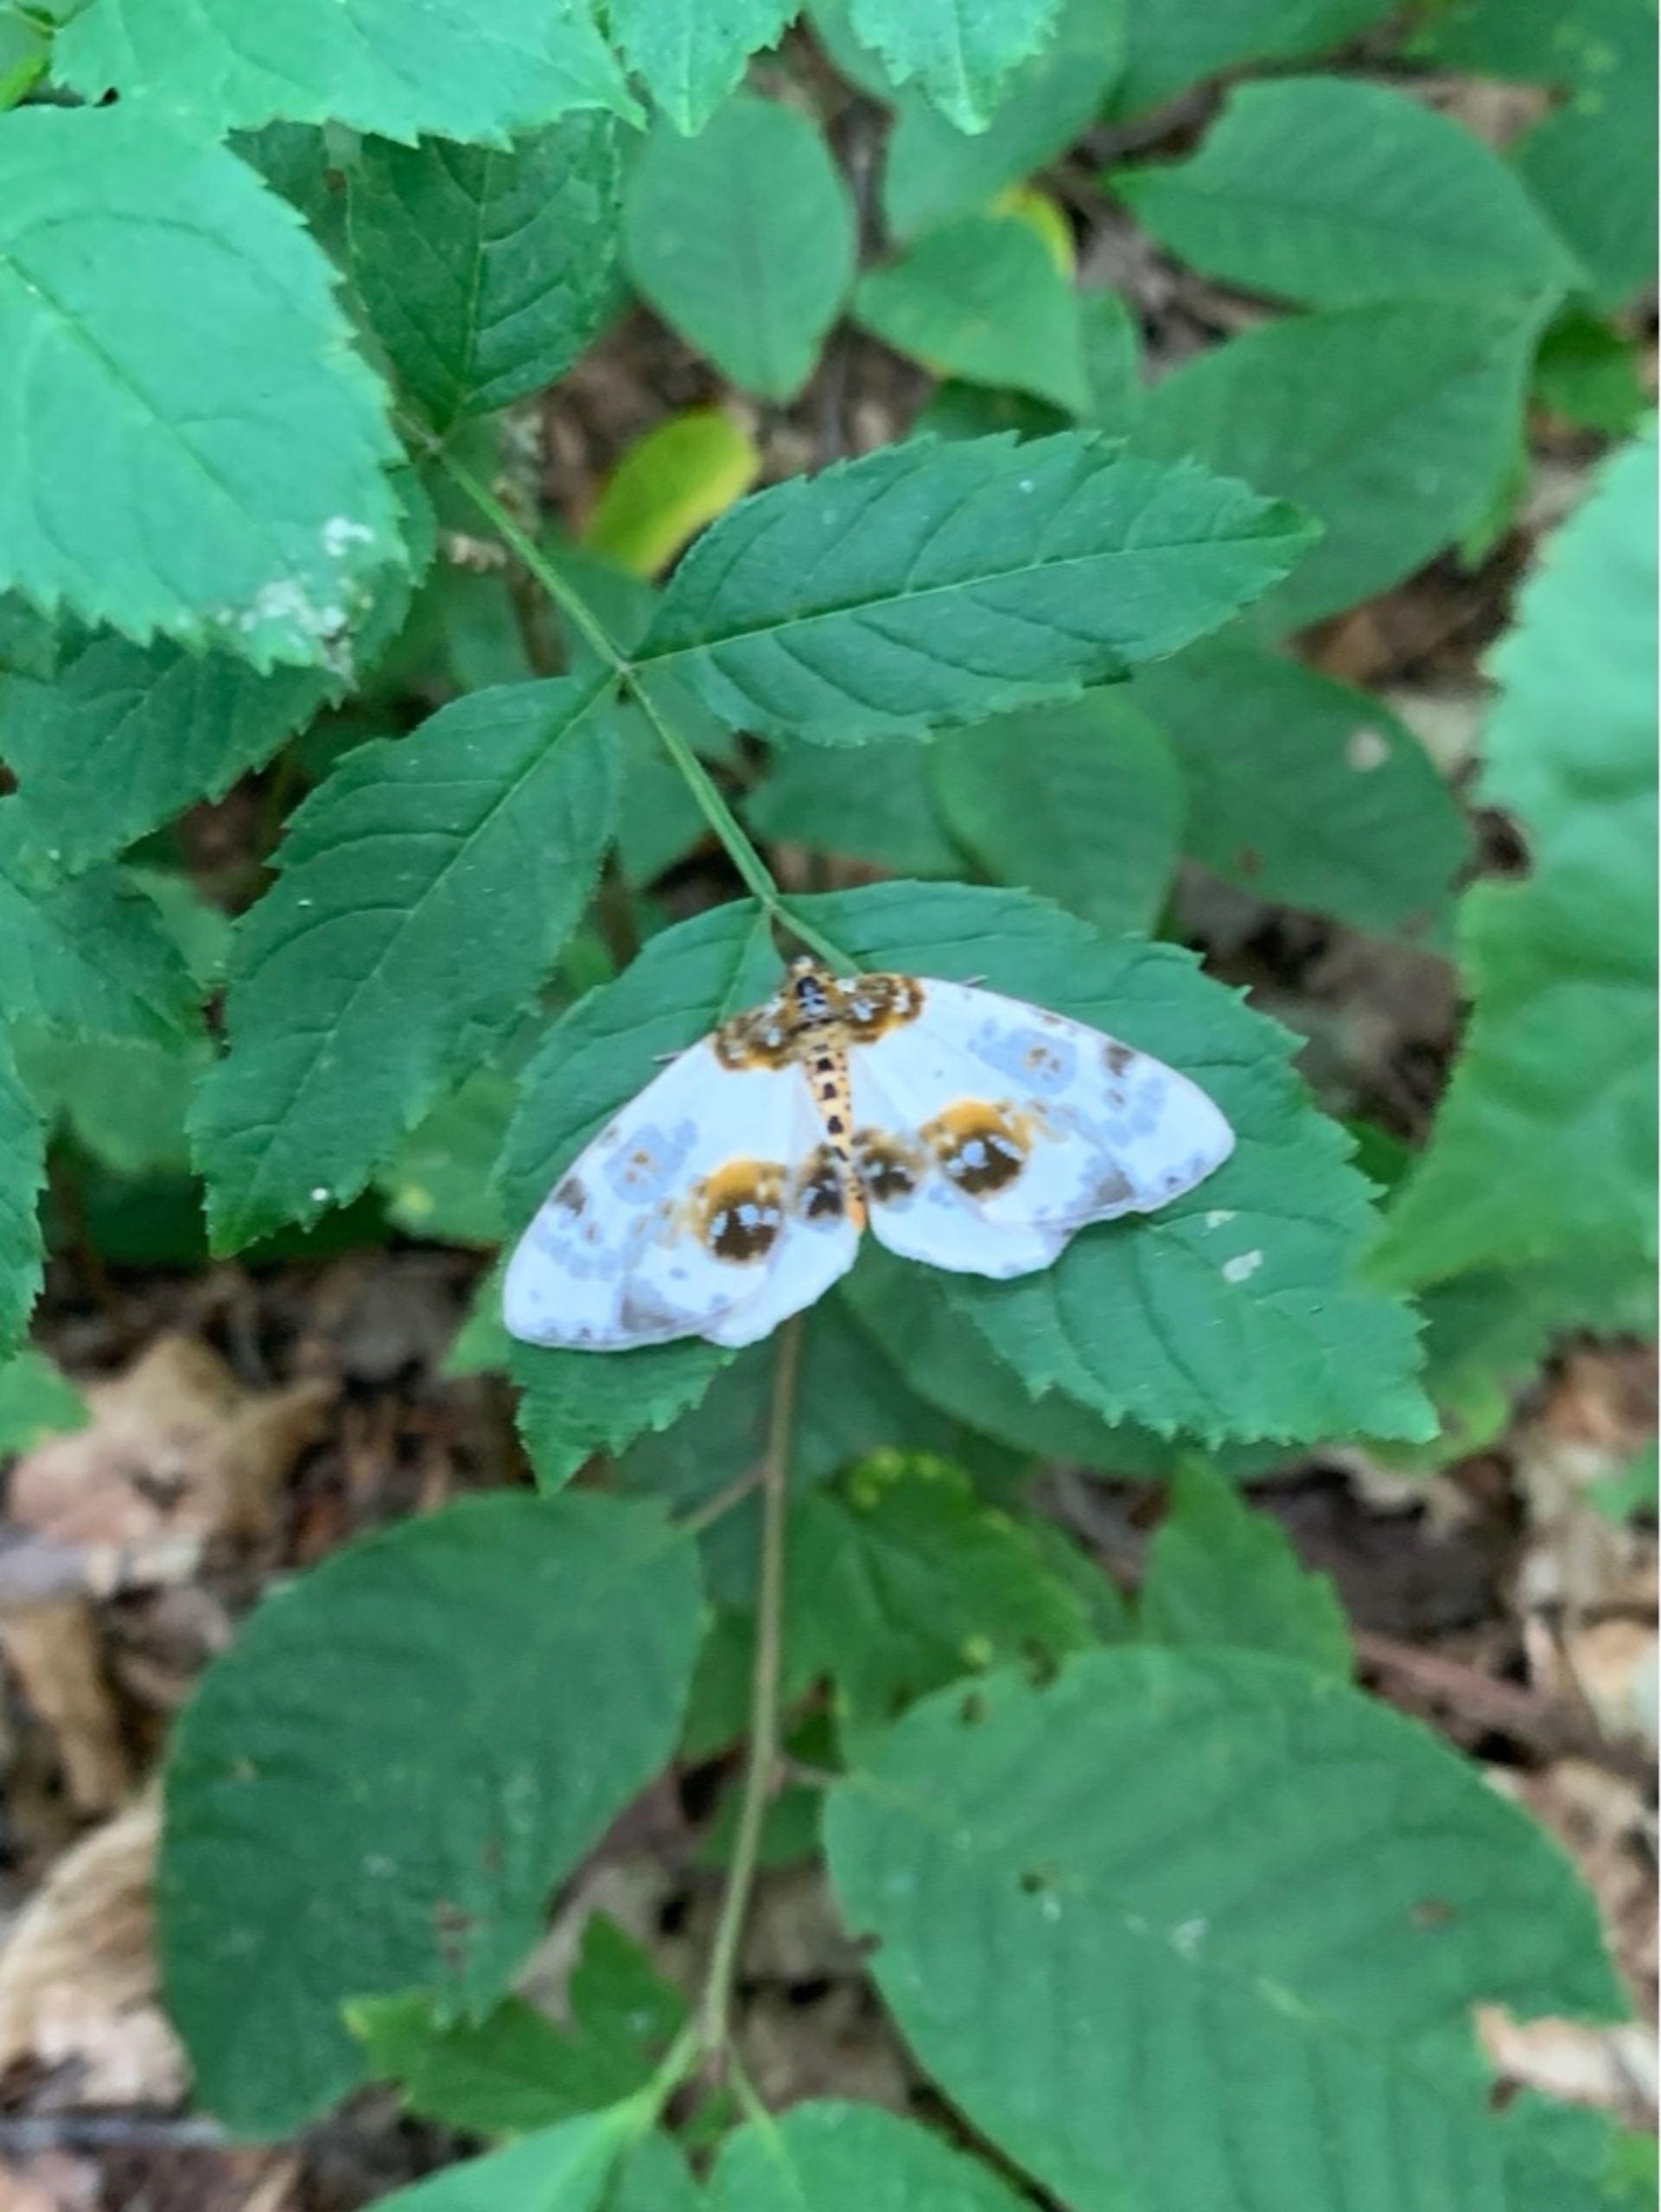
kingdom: Animalia
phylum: Arthropoda
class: Insecta
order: Lepidoptera
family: Geometridae
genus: Abraxas
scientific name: Abraxas sylvata
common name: Elmemåler
